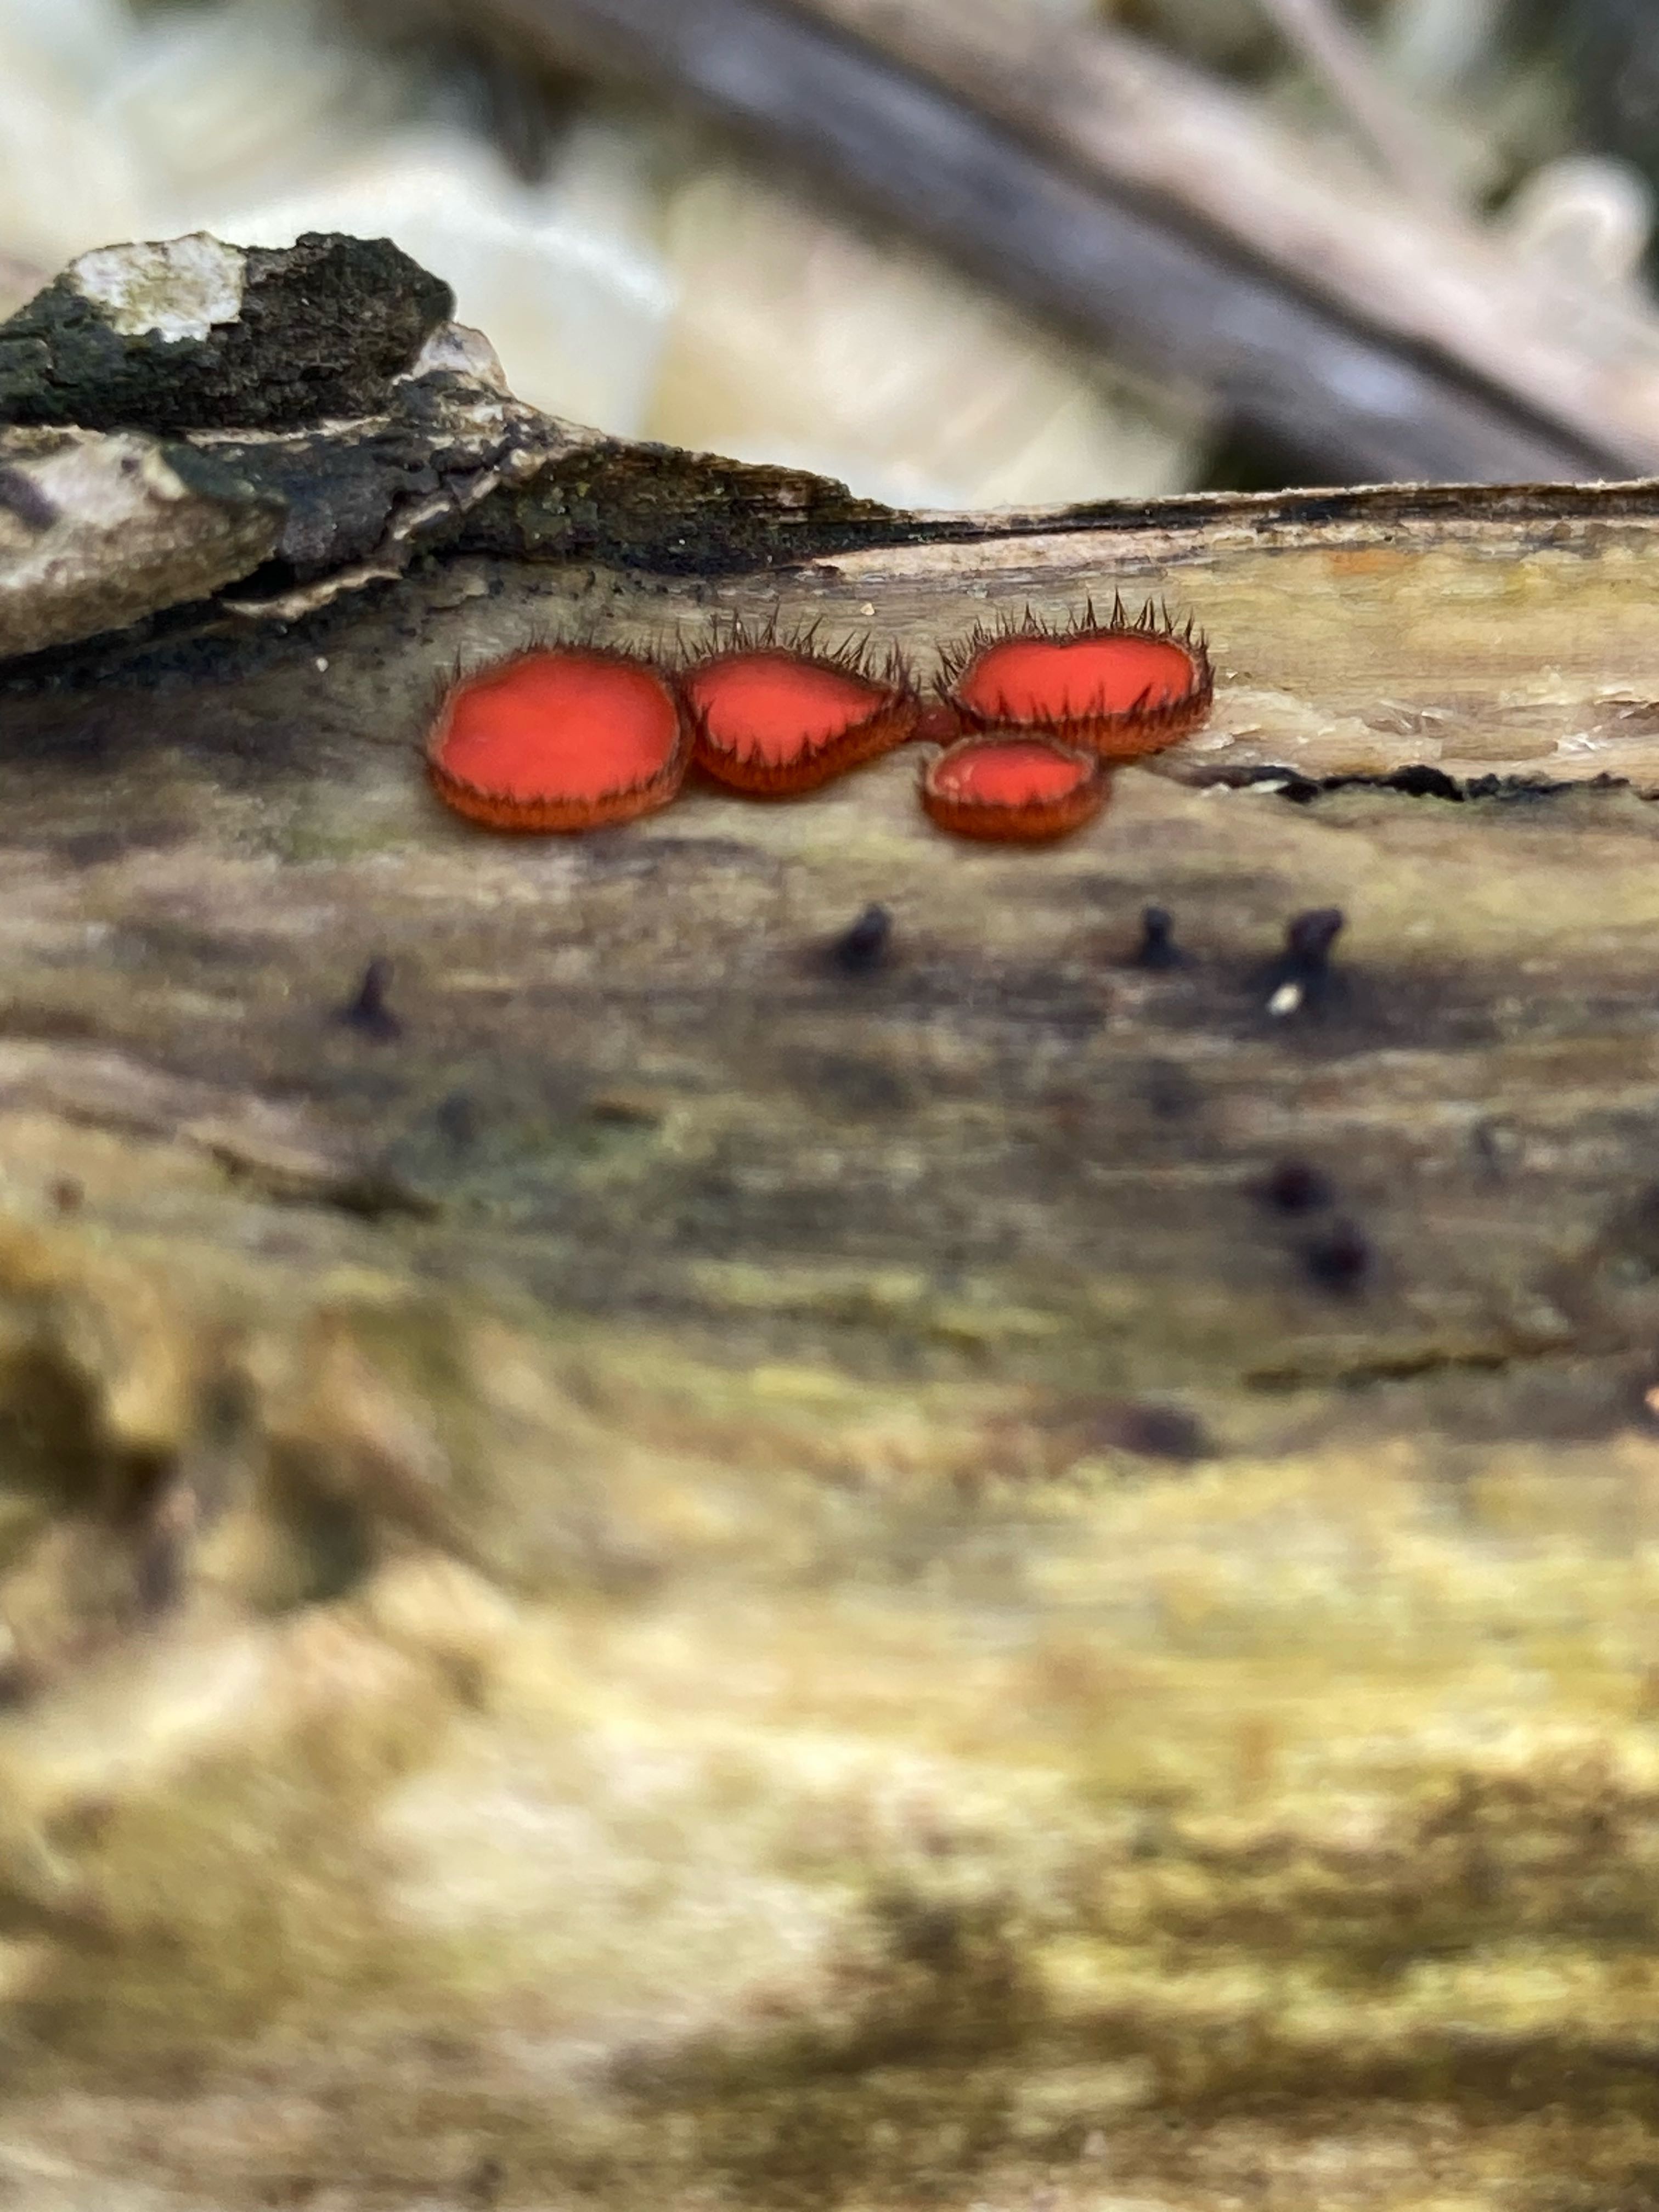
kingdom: Fungi
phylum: Ascomycota
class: Pezizomycetes
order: Pezizales
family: Pyronemataceae
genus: Scutellinia
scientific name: Scutellinia
